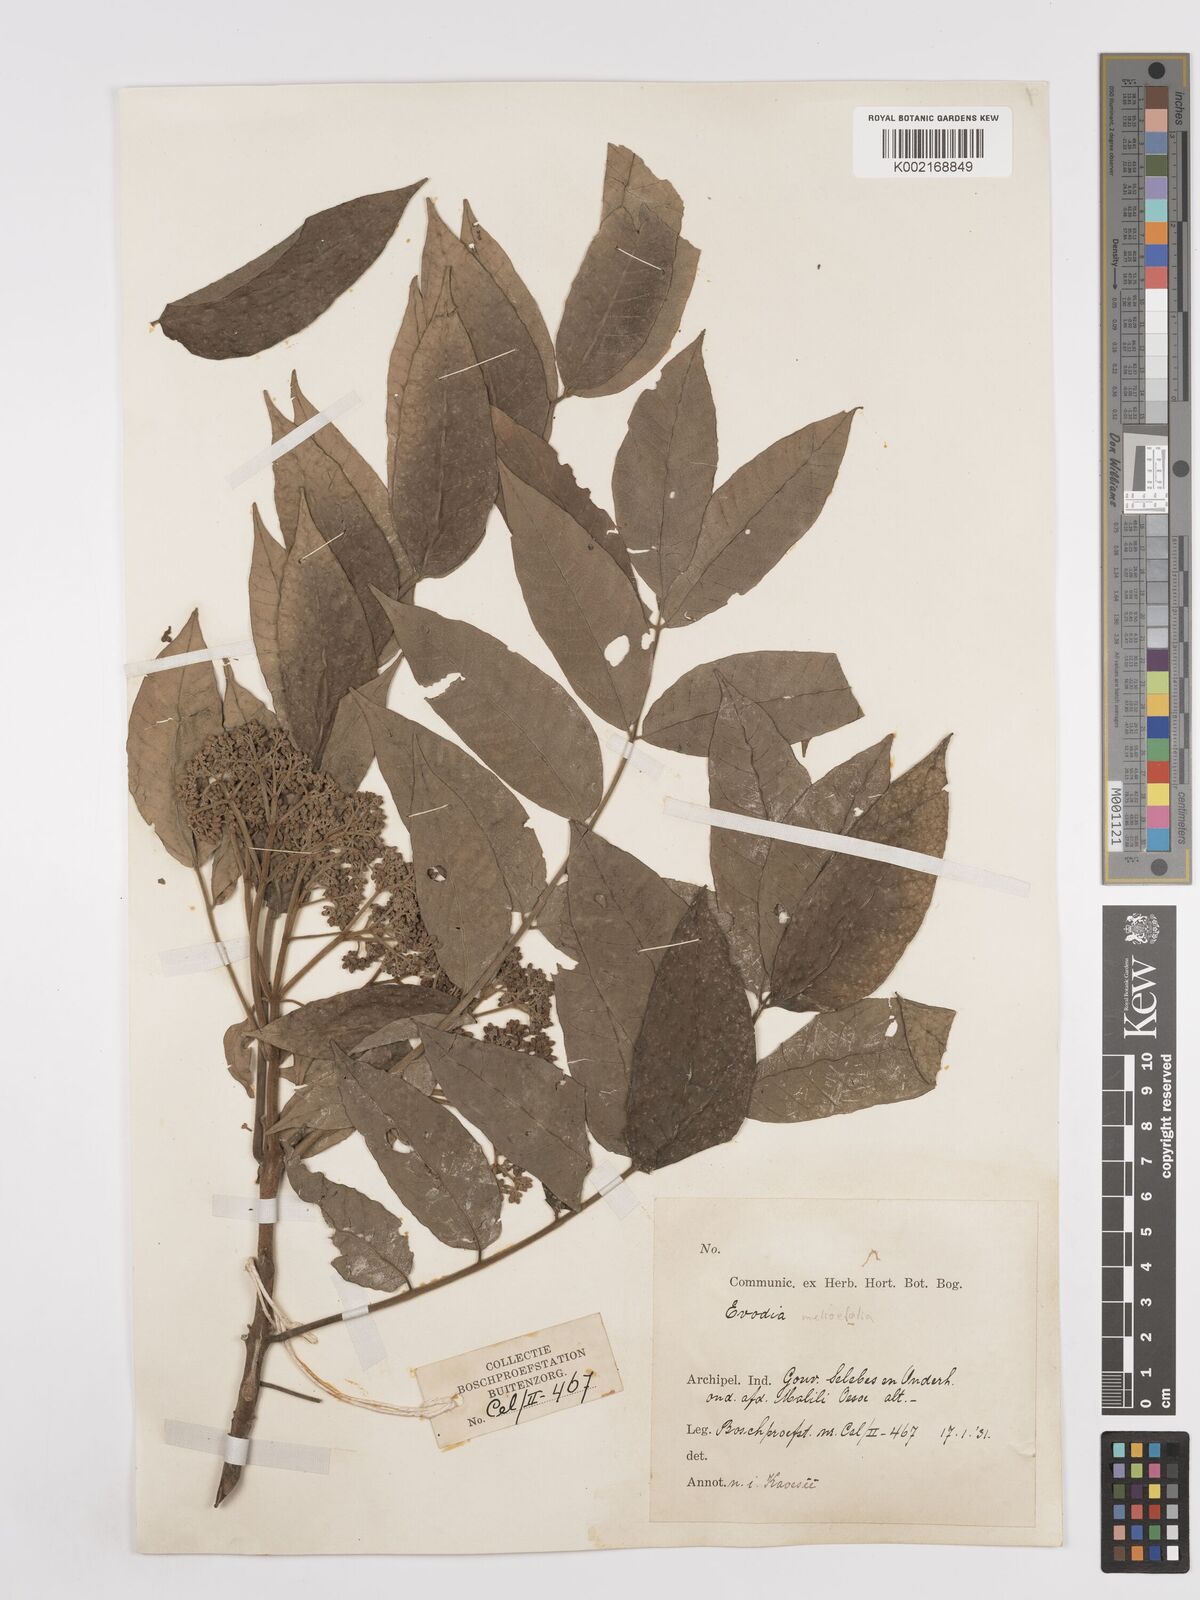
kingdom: Plantae
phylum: Tracheophyta
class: Magnoliopsida
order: Sapindales
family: Rutaceae
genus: Tetradium
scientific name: Tetradium glabrifolium
